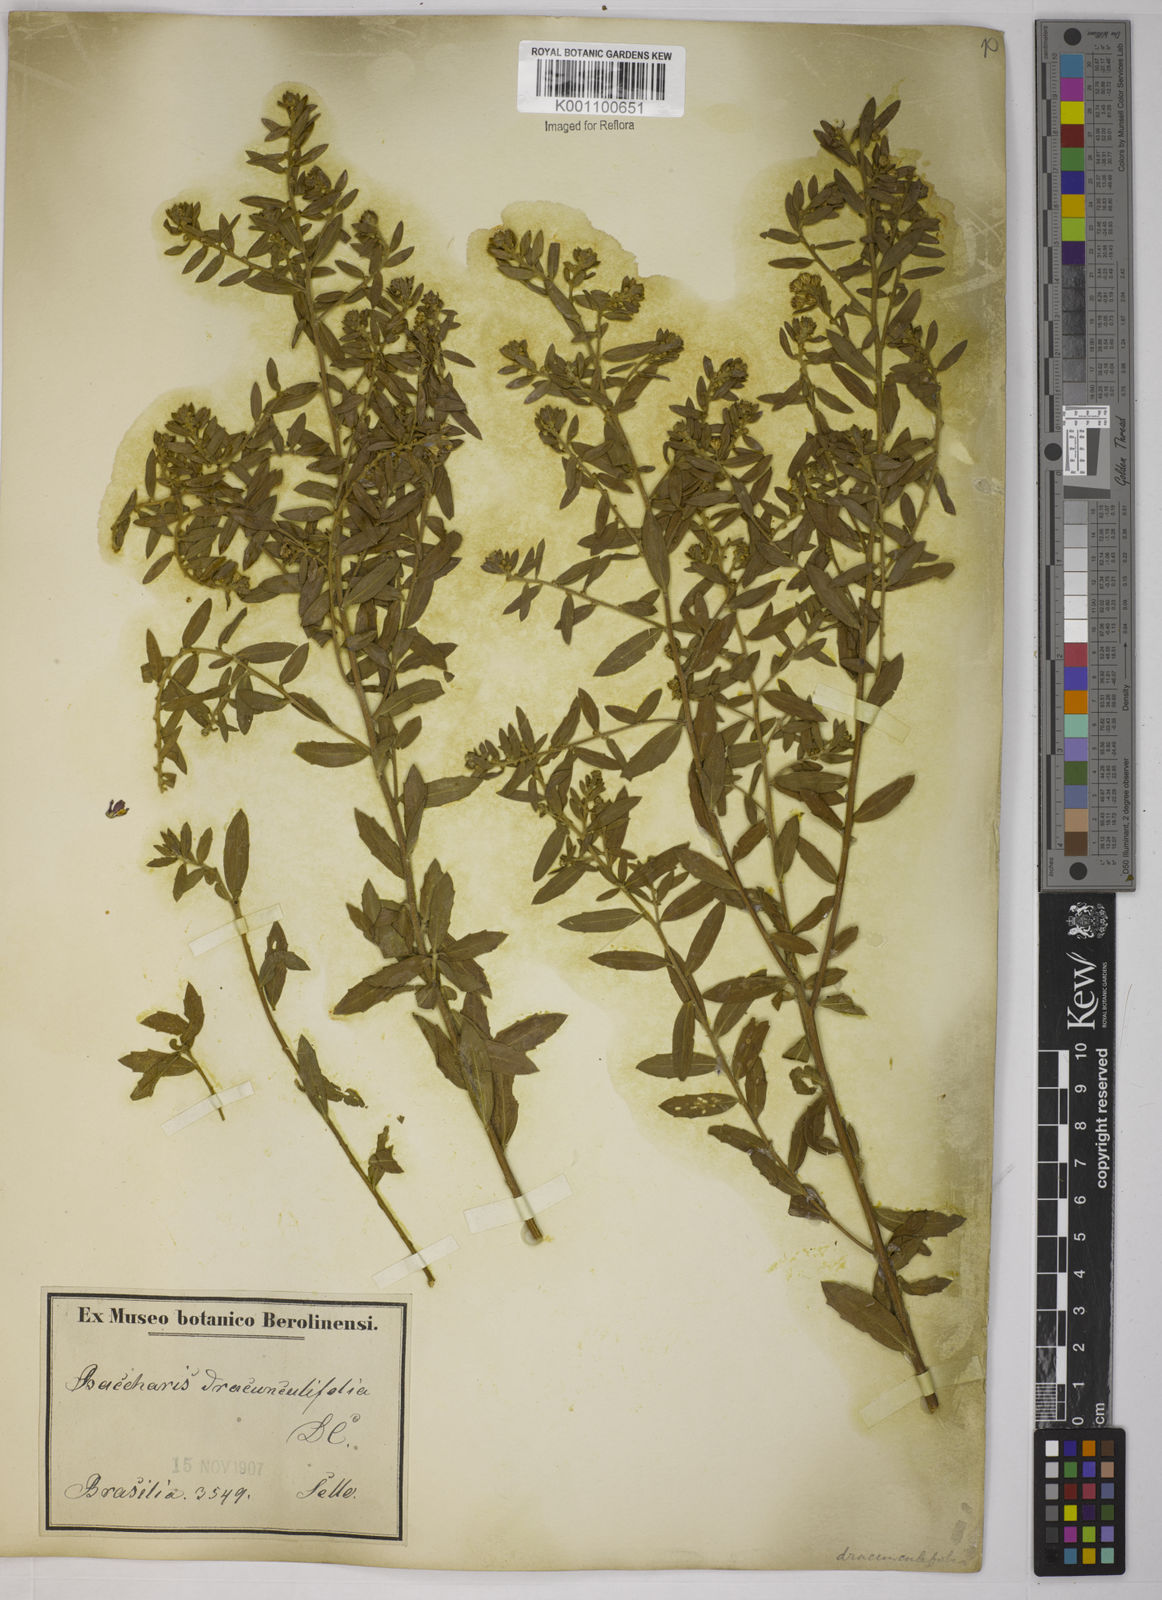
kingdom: Plantae
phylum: Tracheophyta
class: Magnoliopsida
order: Asterales
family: Asteraceae
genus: Baccharis
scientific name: Baccharis dracunculifolia
